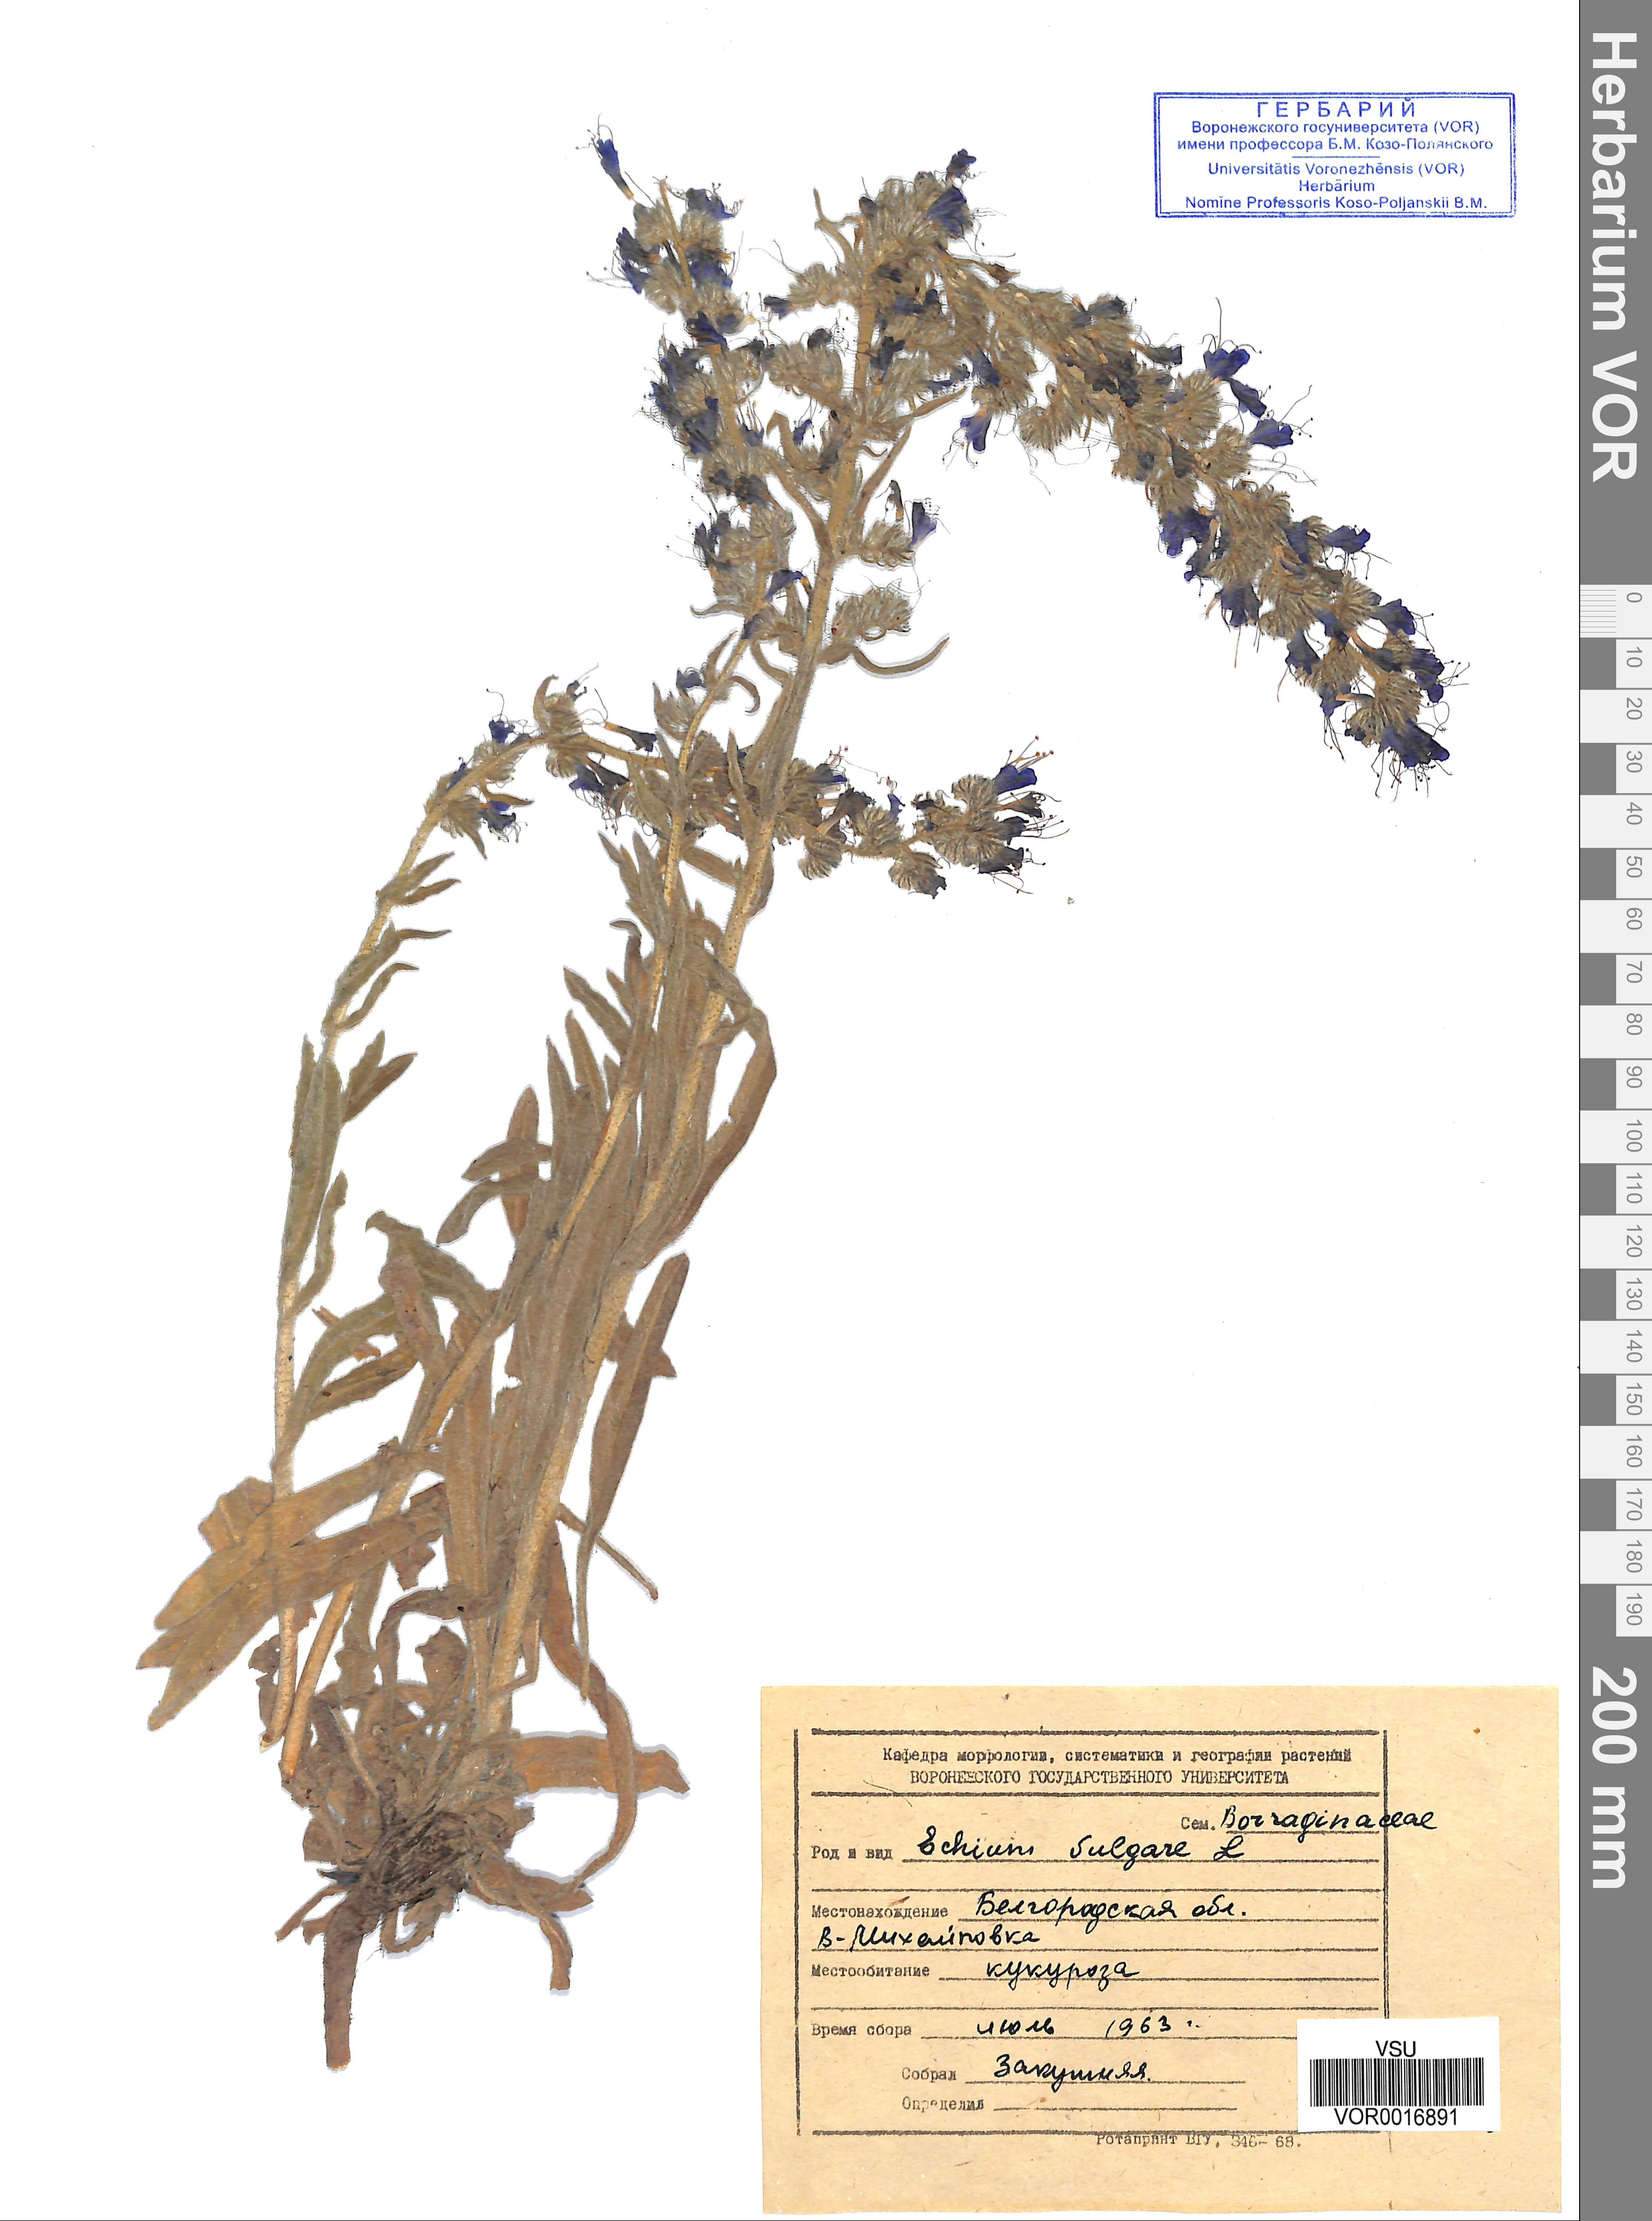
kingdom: Plantae
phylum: Tracheophyta
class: Magnoliopsida
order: Boraginales
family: Boraginaceae
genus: Echium
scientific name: Echium vulgare
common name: Common viper's bugloss
